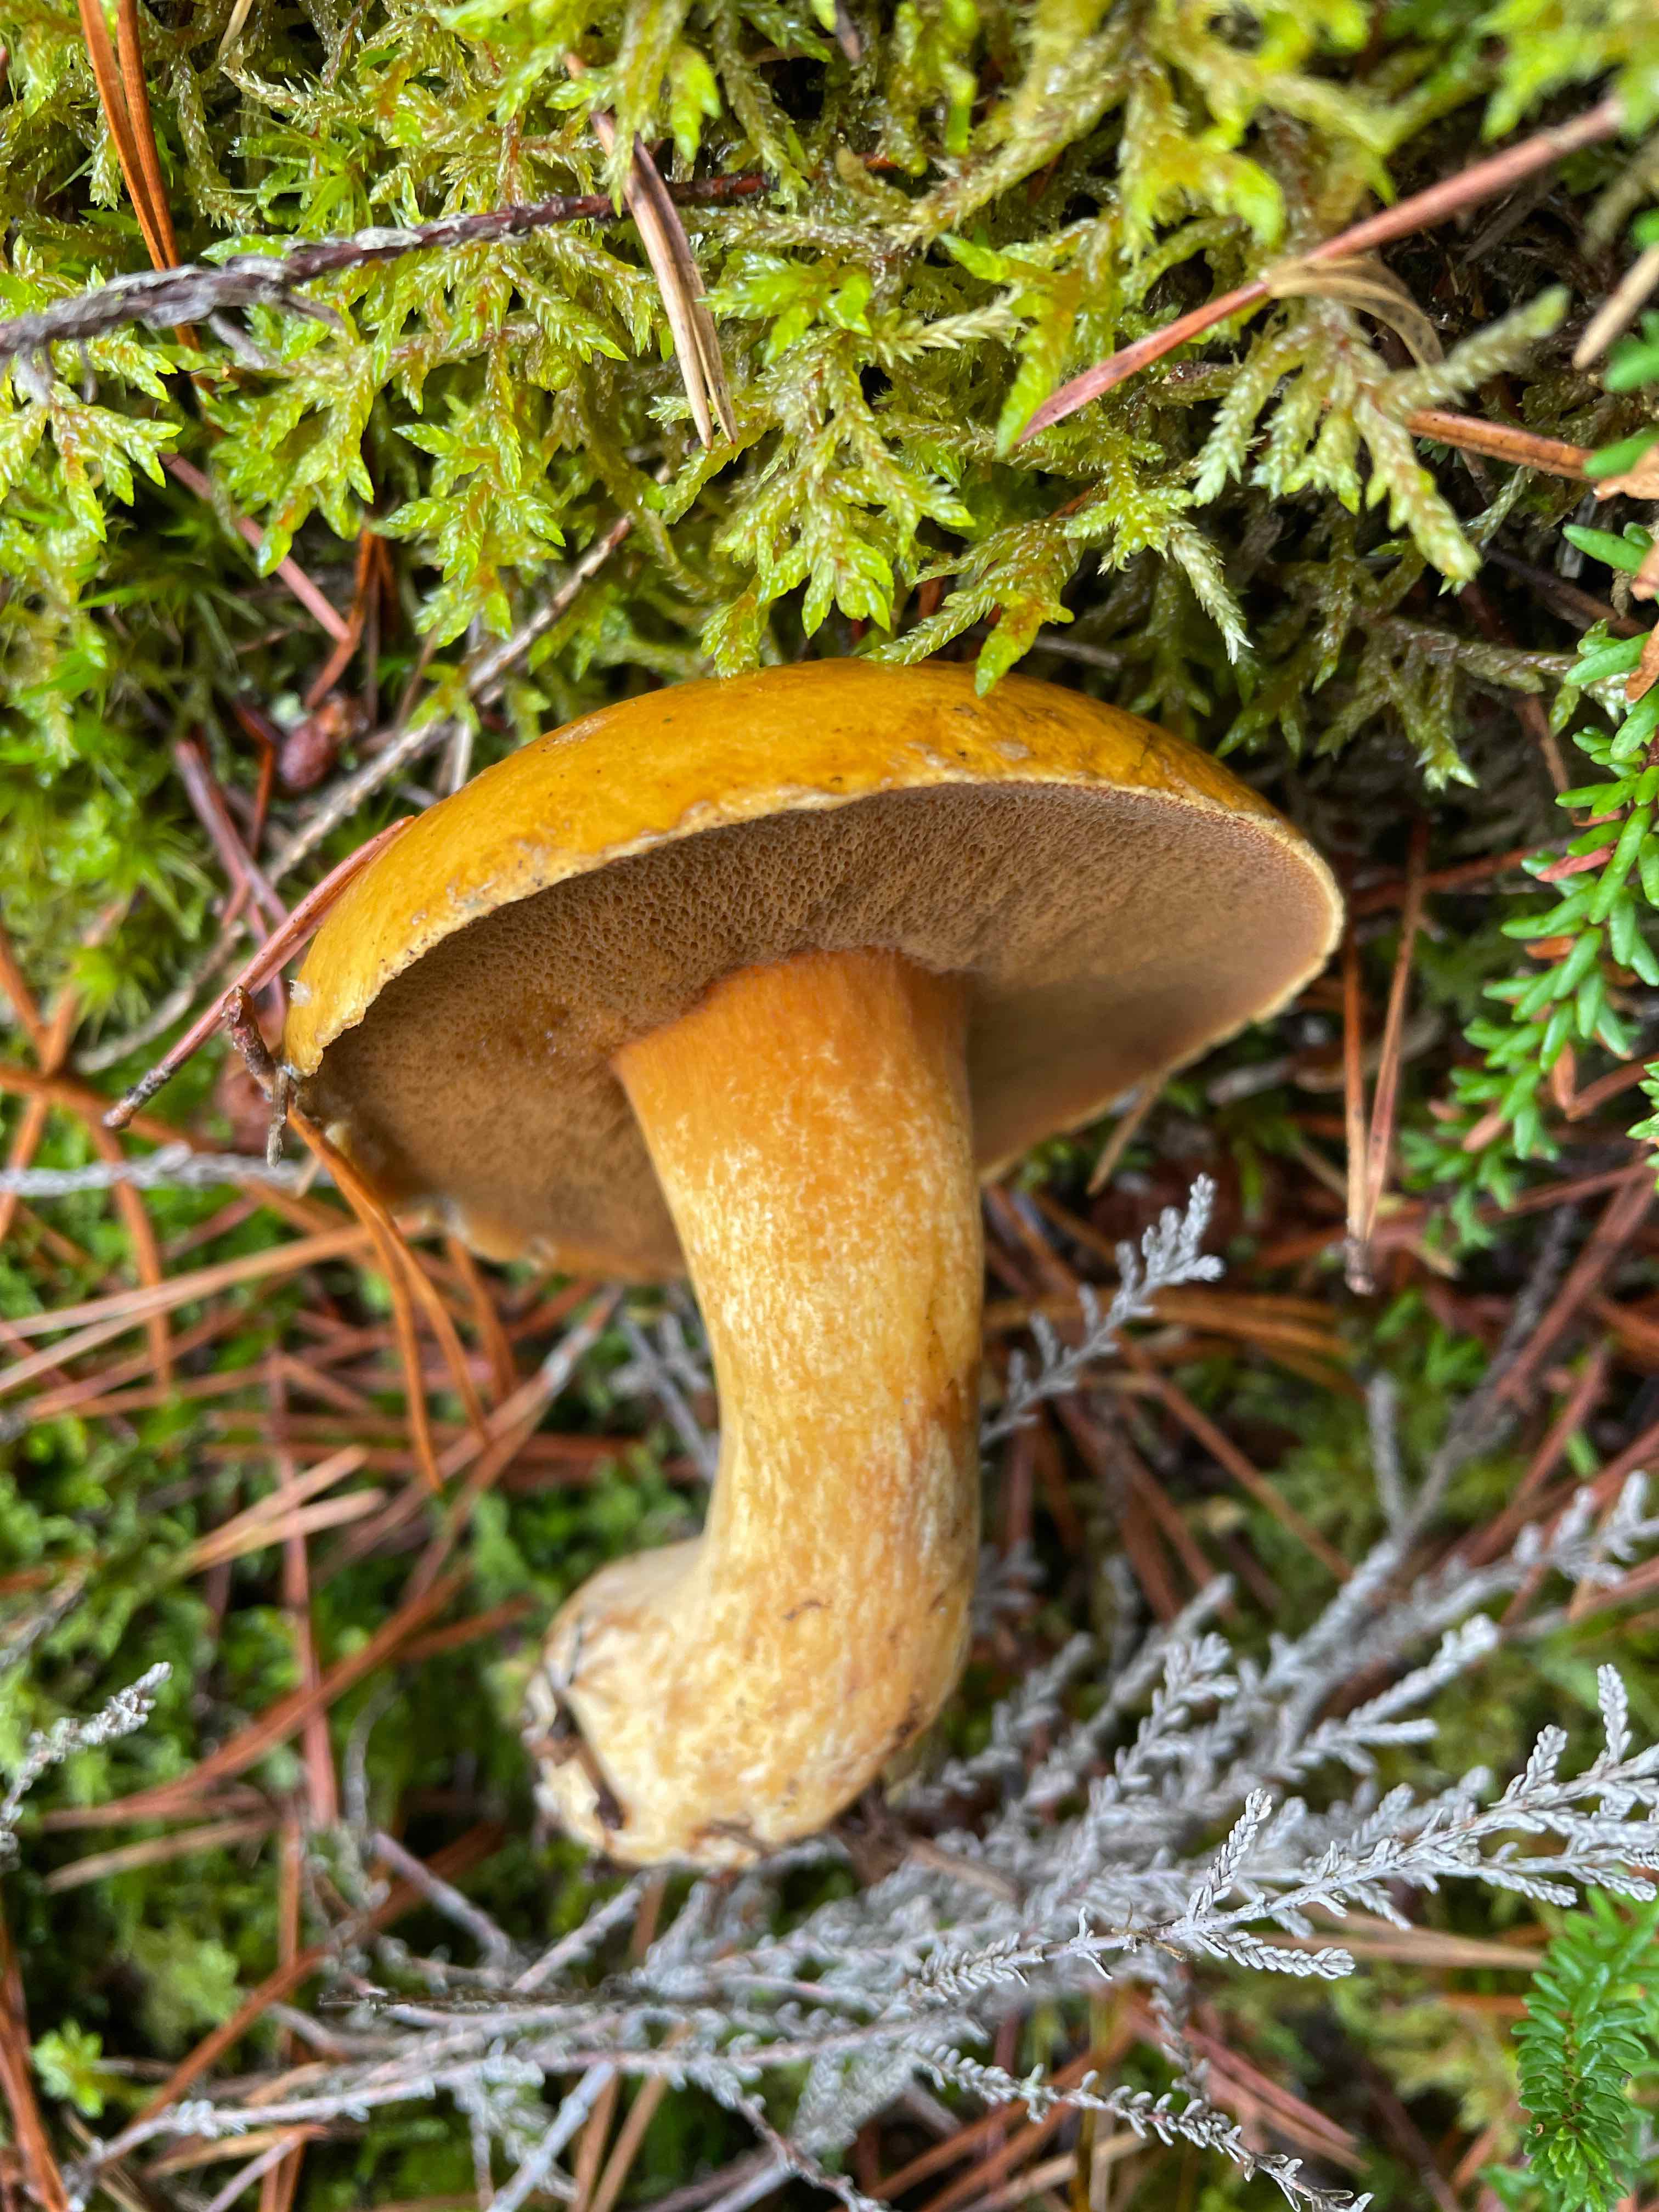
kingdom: Fungi
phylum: Basidiomycota
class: Agaricomycetes
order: Boletales
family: Suillaceae
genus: Suillus
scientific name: Suillus variegatus
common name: broget slimrørhat
